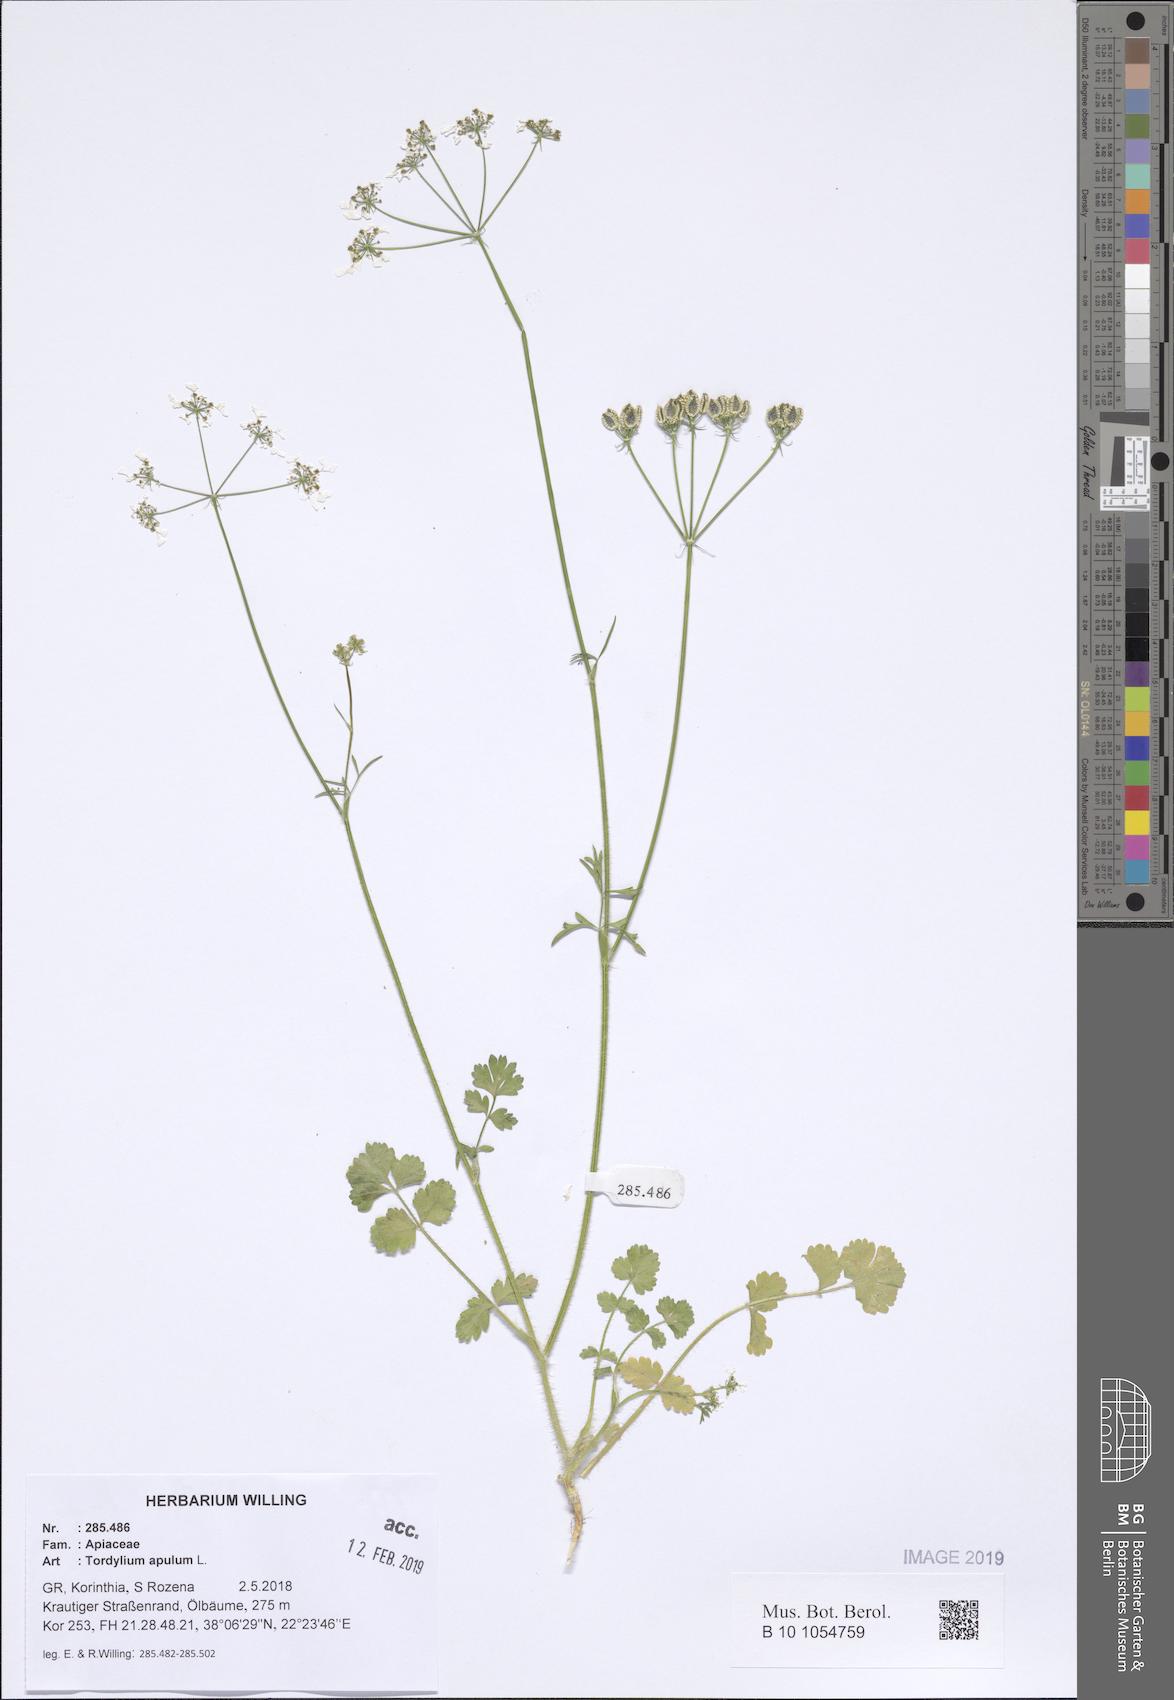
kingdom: Plantae
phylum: Tracheophyta
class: Magnoliopsida
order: Apiales
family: Apiaceae
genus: Tordylium
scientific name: Tordylium apulum
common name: Mediterranean hartwort
